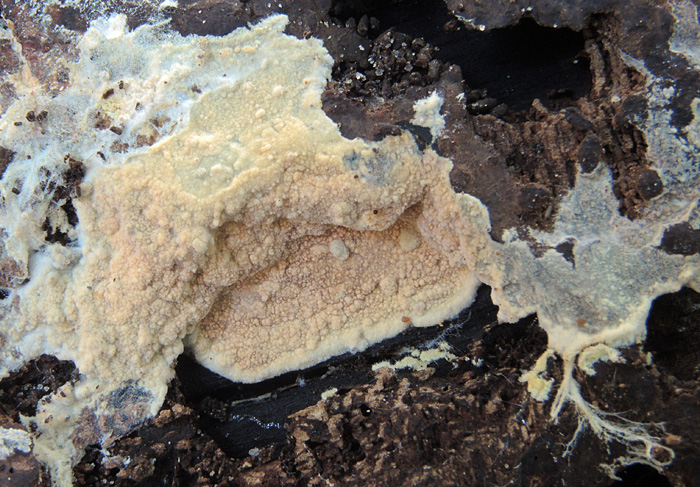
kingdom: Fungi
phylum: Basidiomycota
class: Agaricomycetes
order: Polyporales
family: Meruliaceae
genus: Scopuloides
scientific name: Scopuloides rimosa
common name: dughinde
